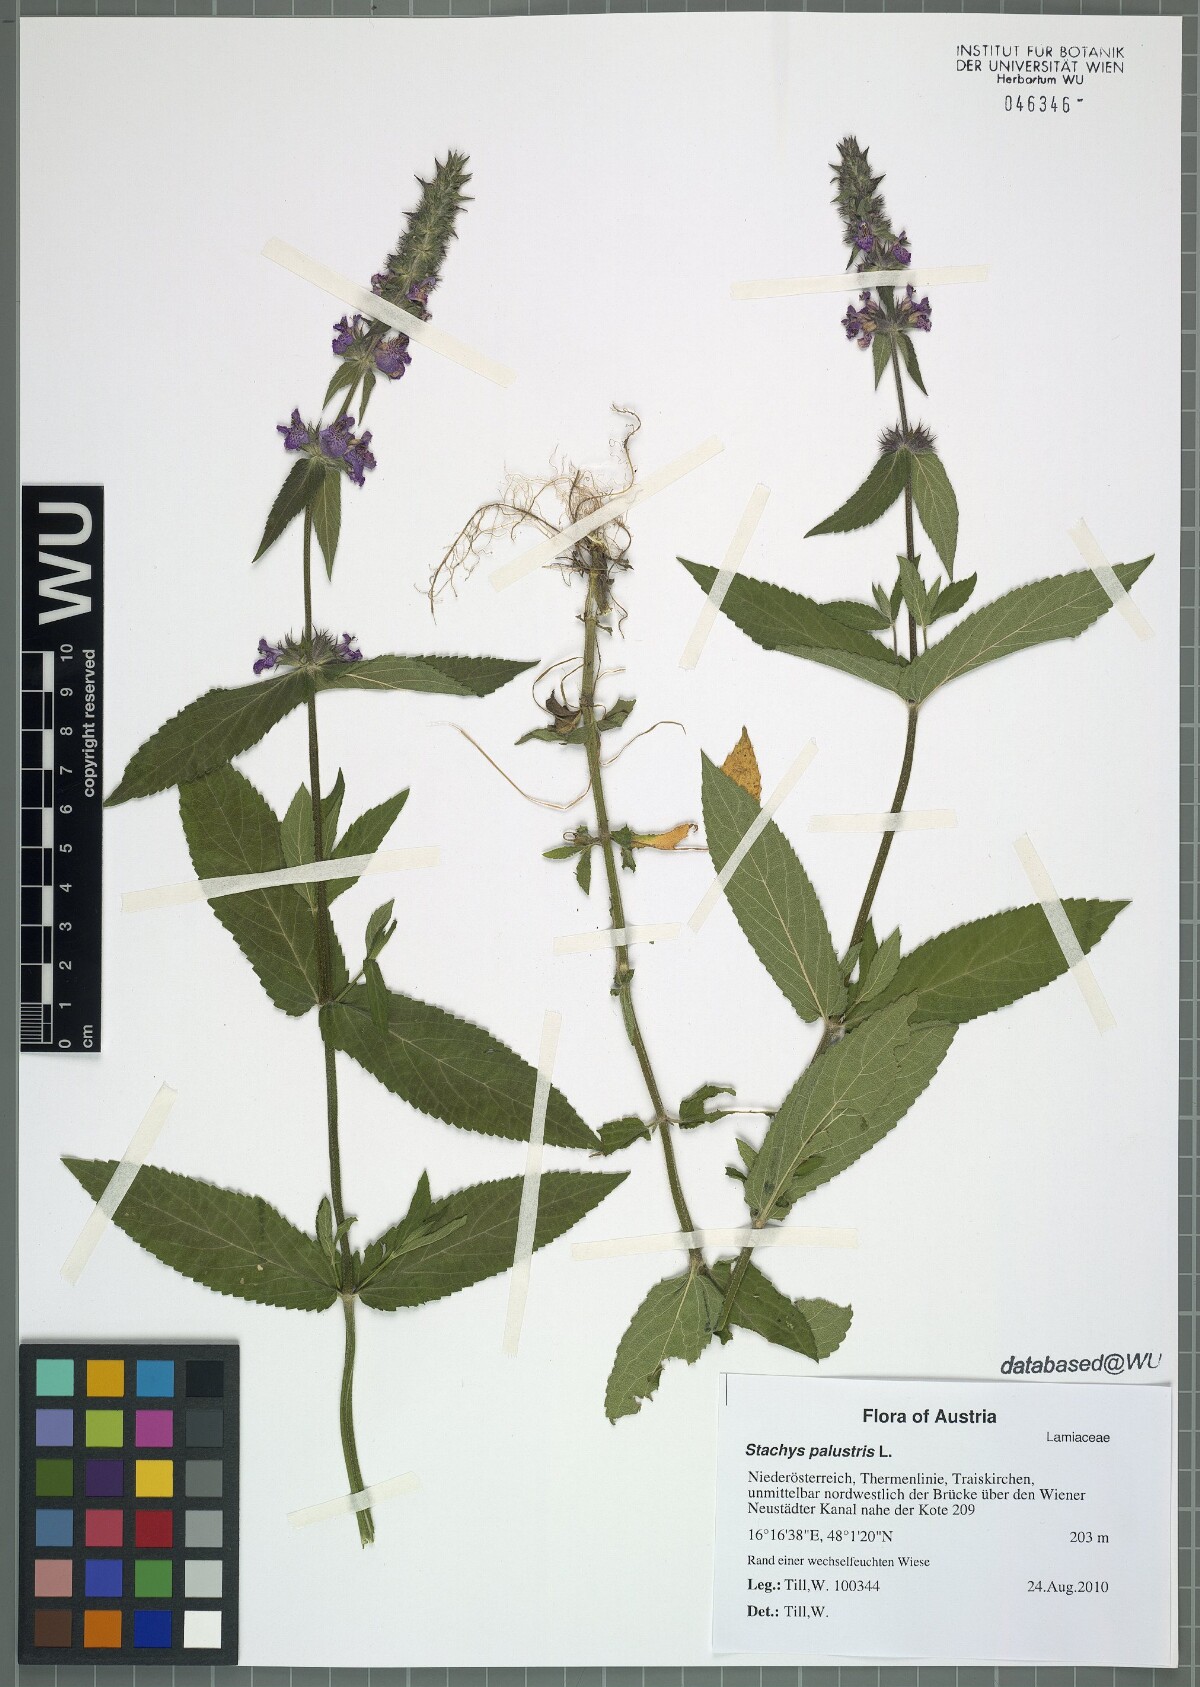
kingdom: Plantae
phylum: Tracheophyta
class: Magnoliopsida
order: Lamiales
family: Lamiaceae
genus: Stachys
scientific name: Stachys palustris
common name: Marsh woundwort
